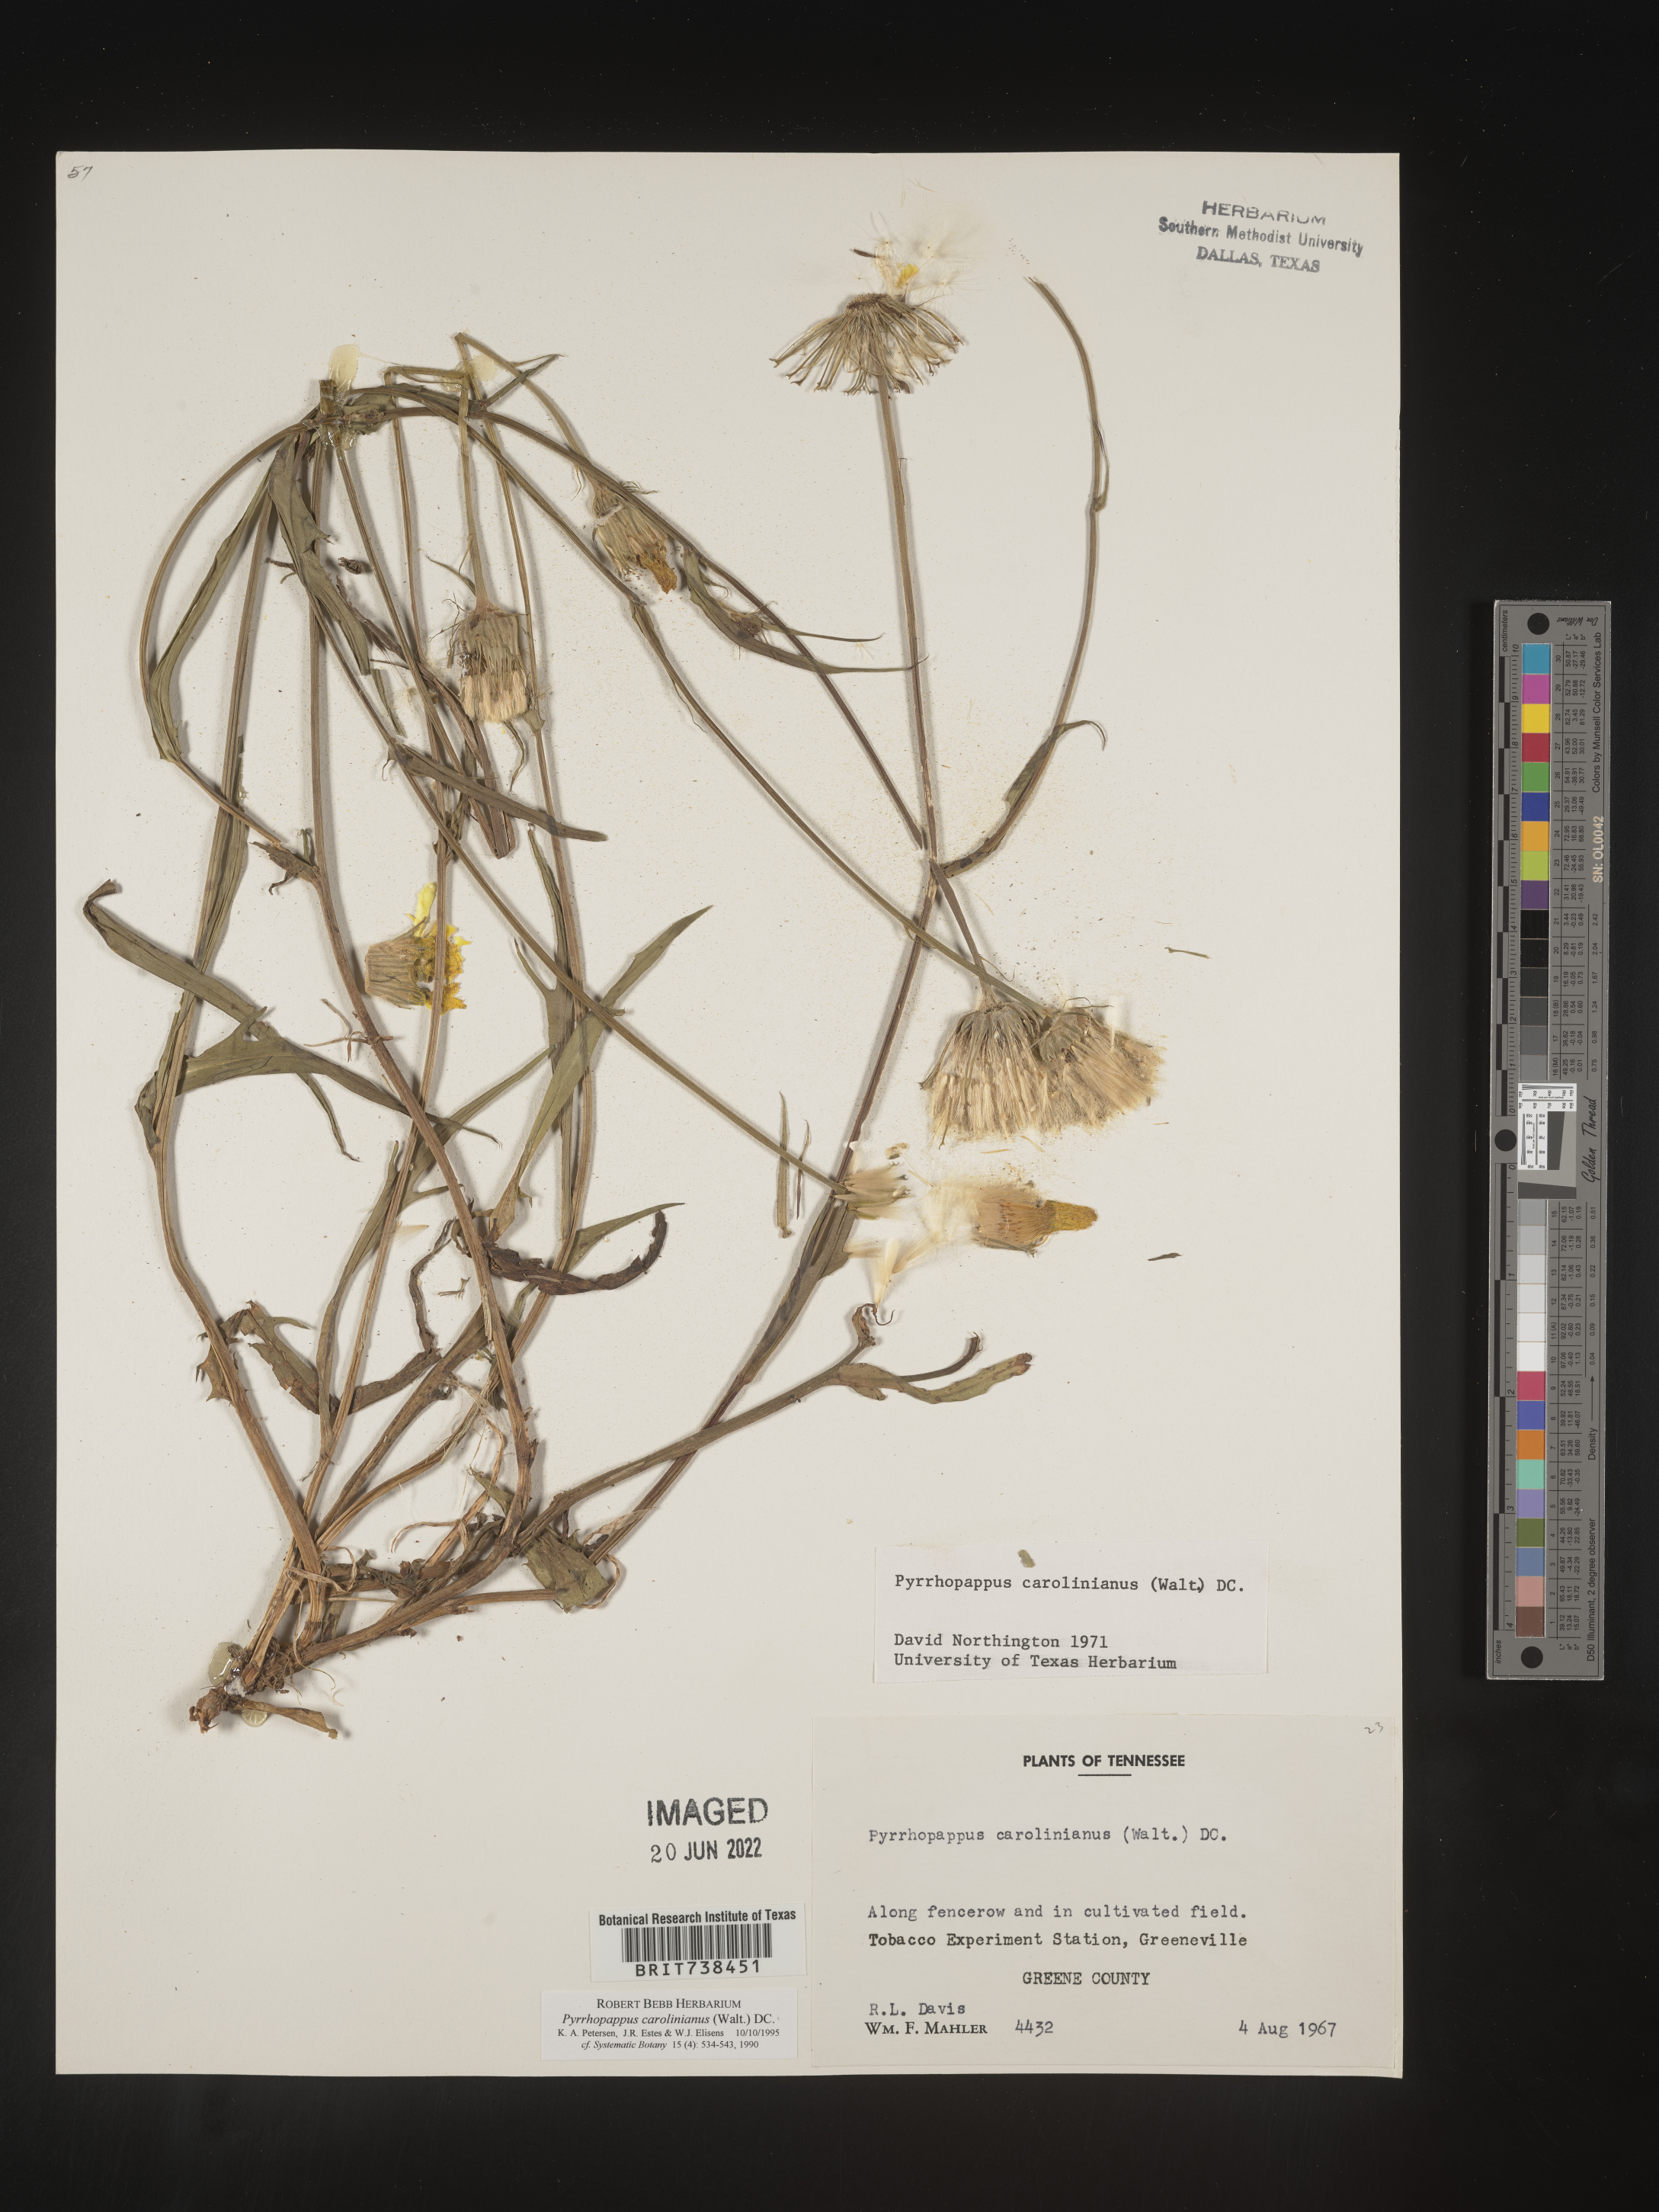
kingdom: Plantae
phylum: Tracheophyta
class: Magnoliopsida
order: Asterales
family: Asteraceae
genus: Pyrrhopappus
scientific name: Pyrrhopappus carolinianus
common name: Carolina desert-chicory
